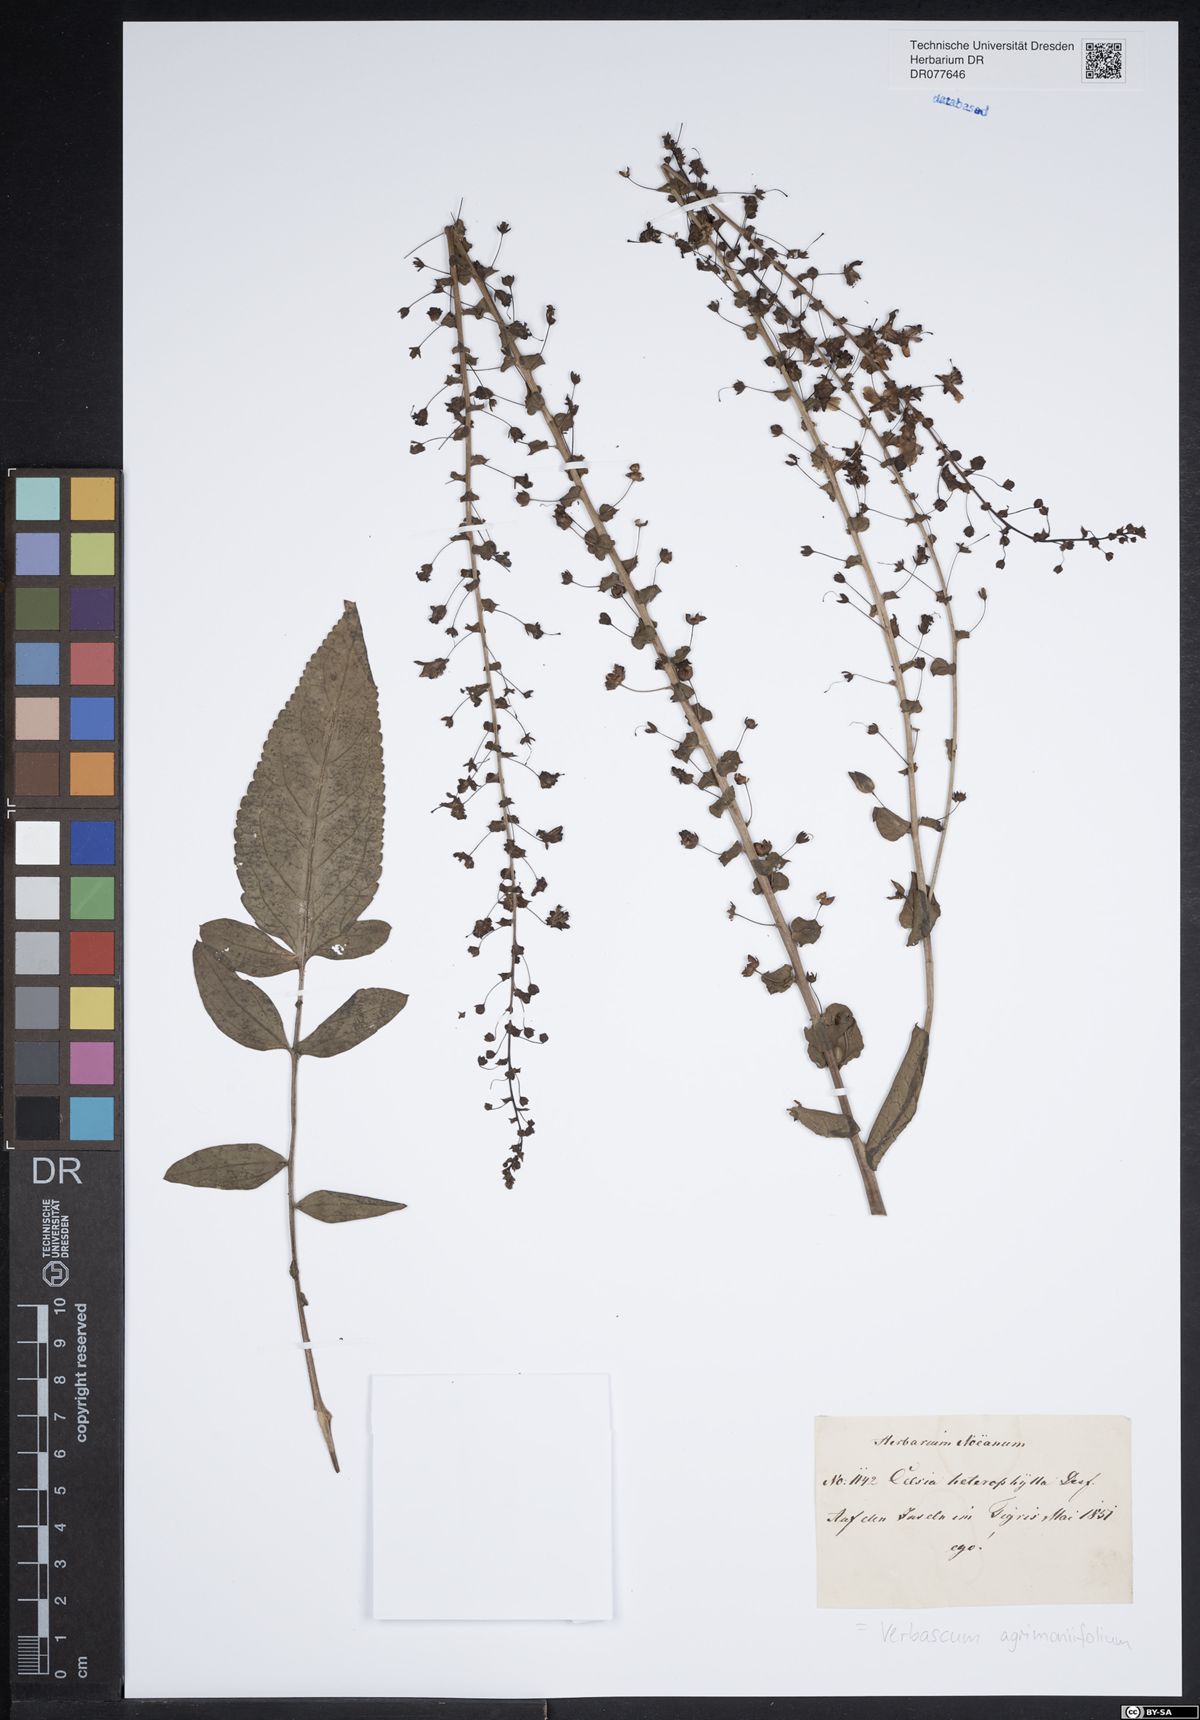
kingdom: Plantae
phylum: Tracheophyta
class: Magnoliopsida
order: Lamiales
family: Scrophulariaceae
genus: Verbascum
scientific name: Verbascum agrimoniifolium
